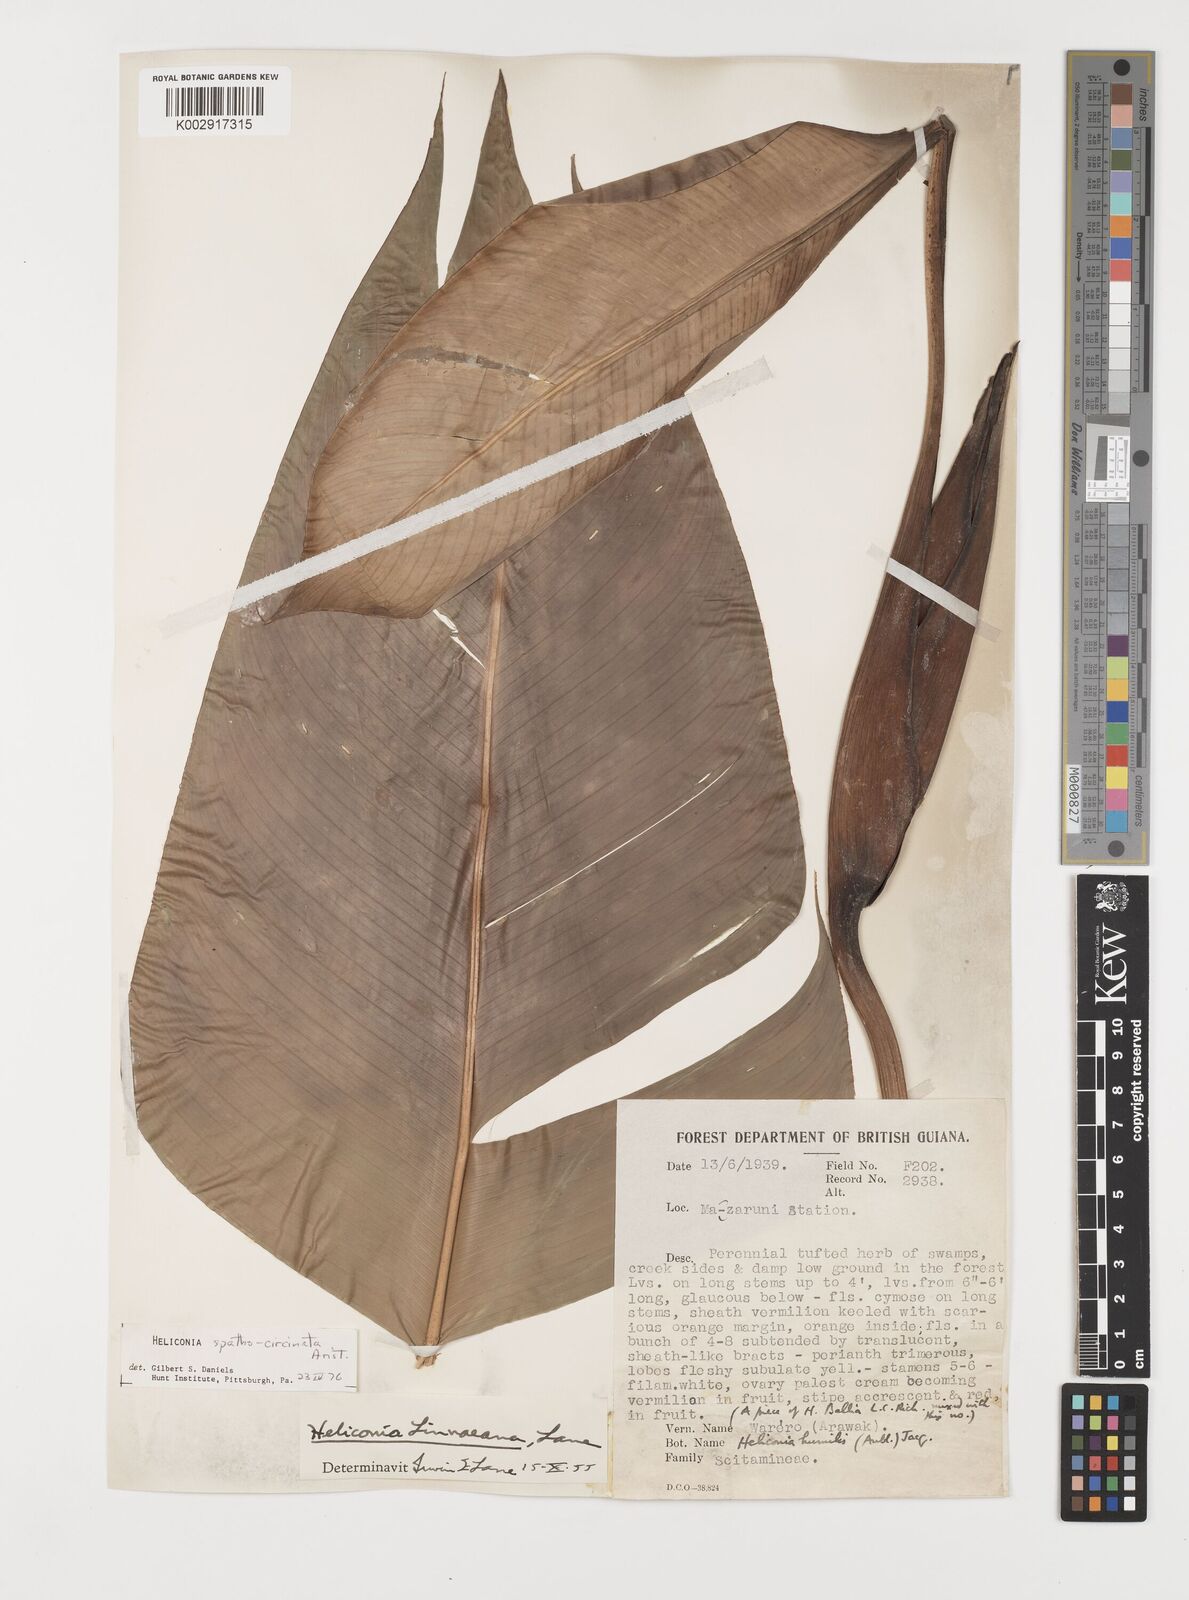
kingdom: Plantae
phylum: Tracheophyta
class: Liliopsida
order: Zingiberales
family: Heliconiaceae
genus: Heliconia
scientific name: Heliconia spathocircinata
